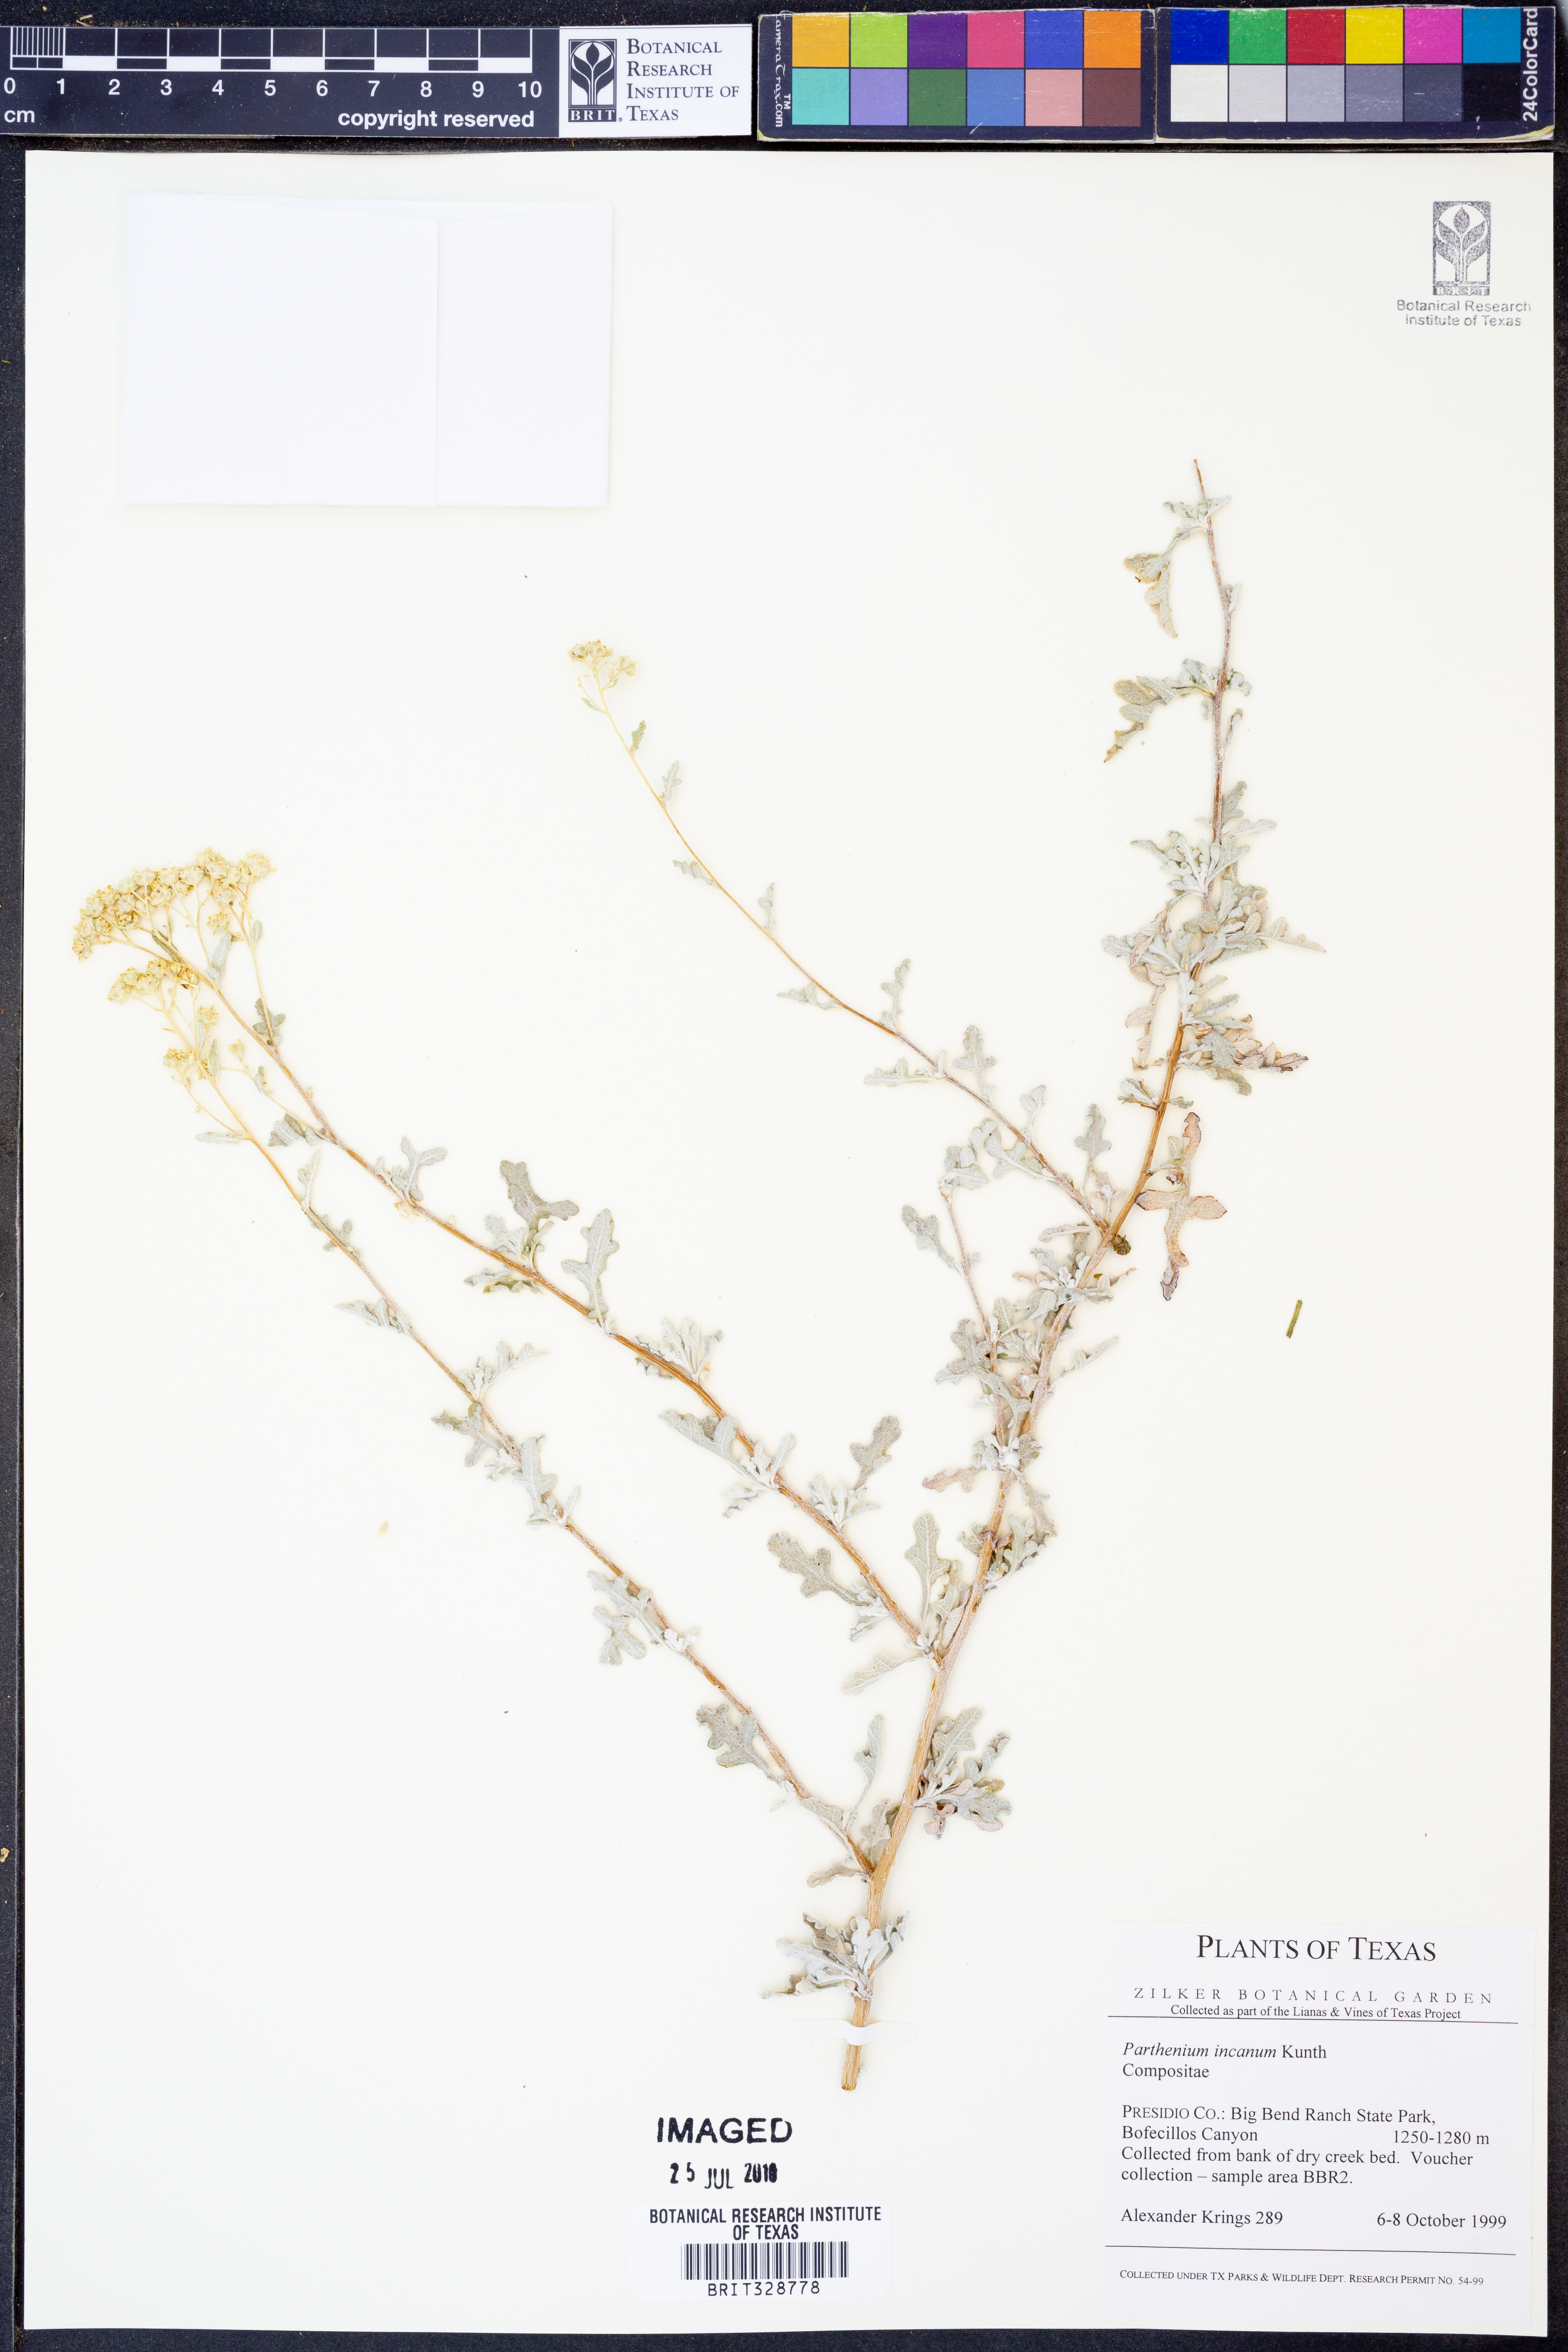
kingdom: Plantae
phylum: Tracheophyta
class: Magnoliopsida
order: Asterales
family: Asteraceae
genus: Parthenium
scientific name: Parthenium incanum
